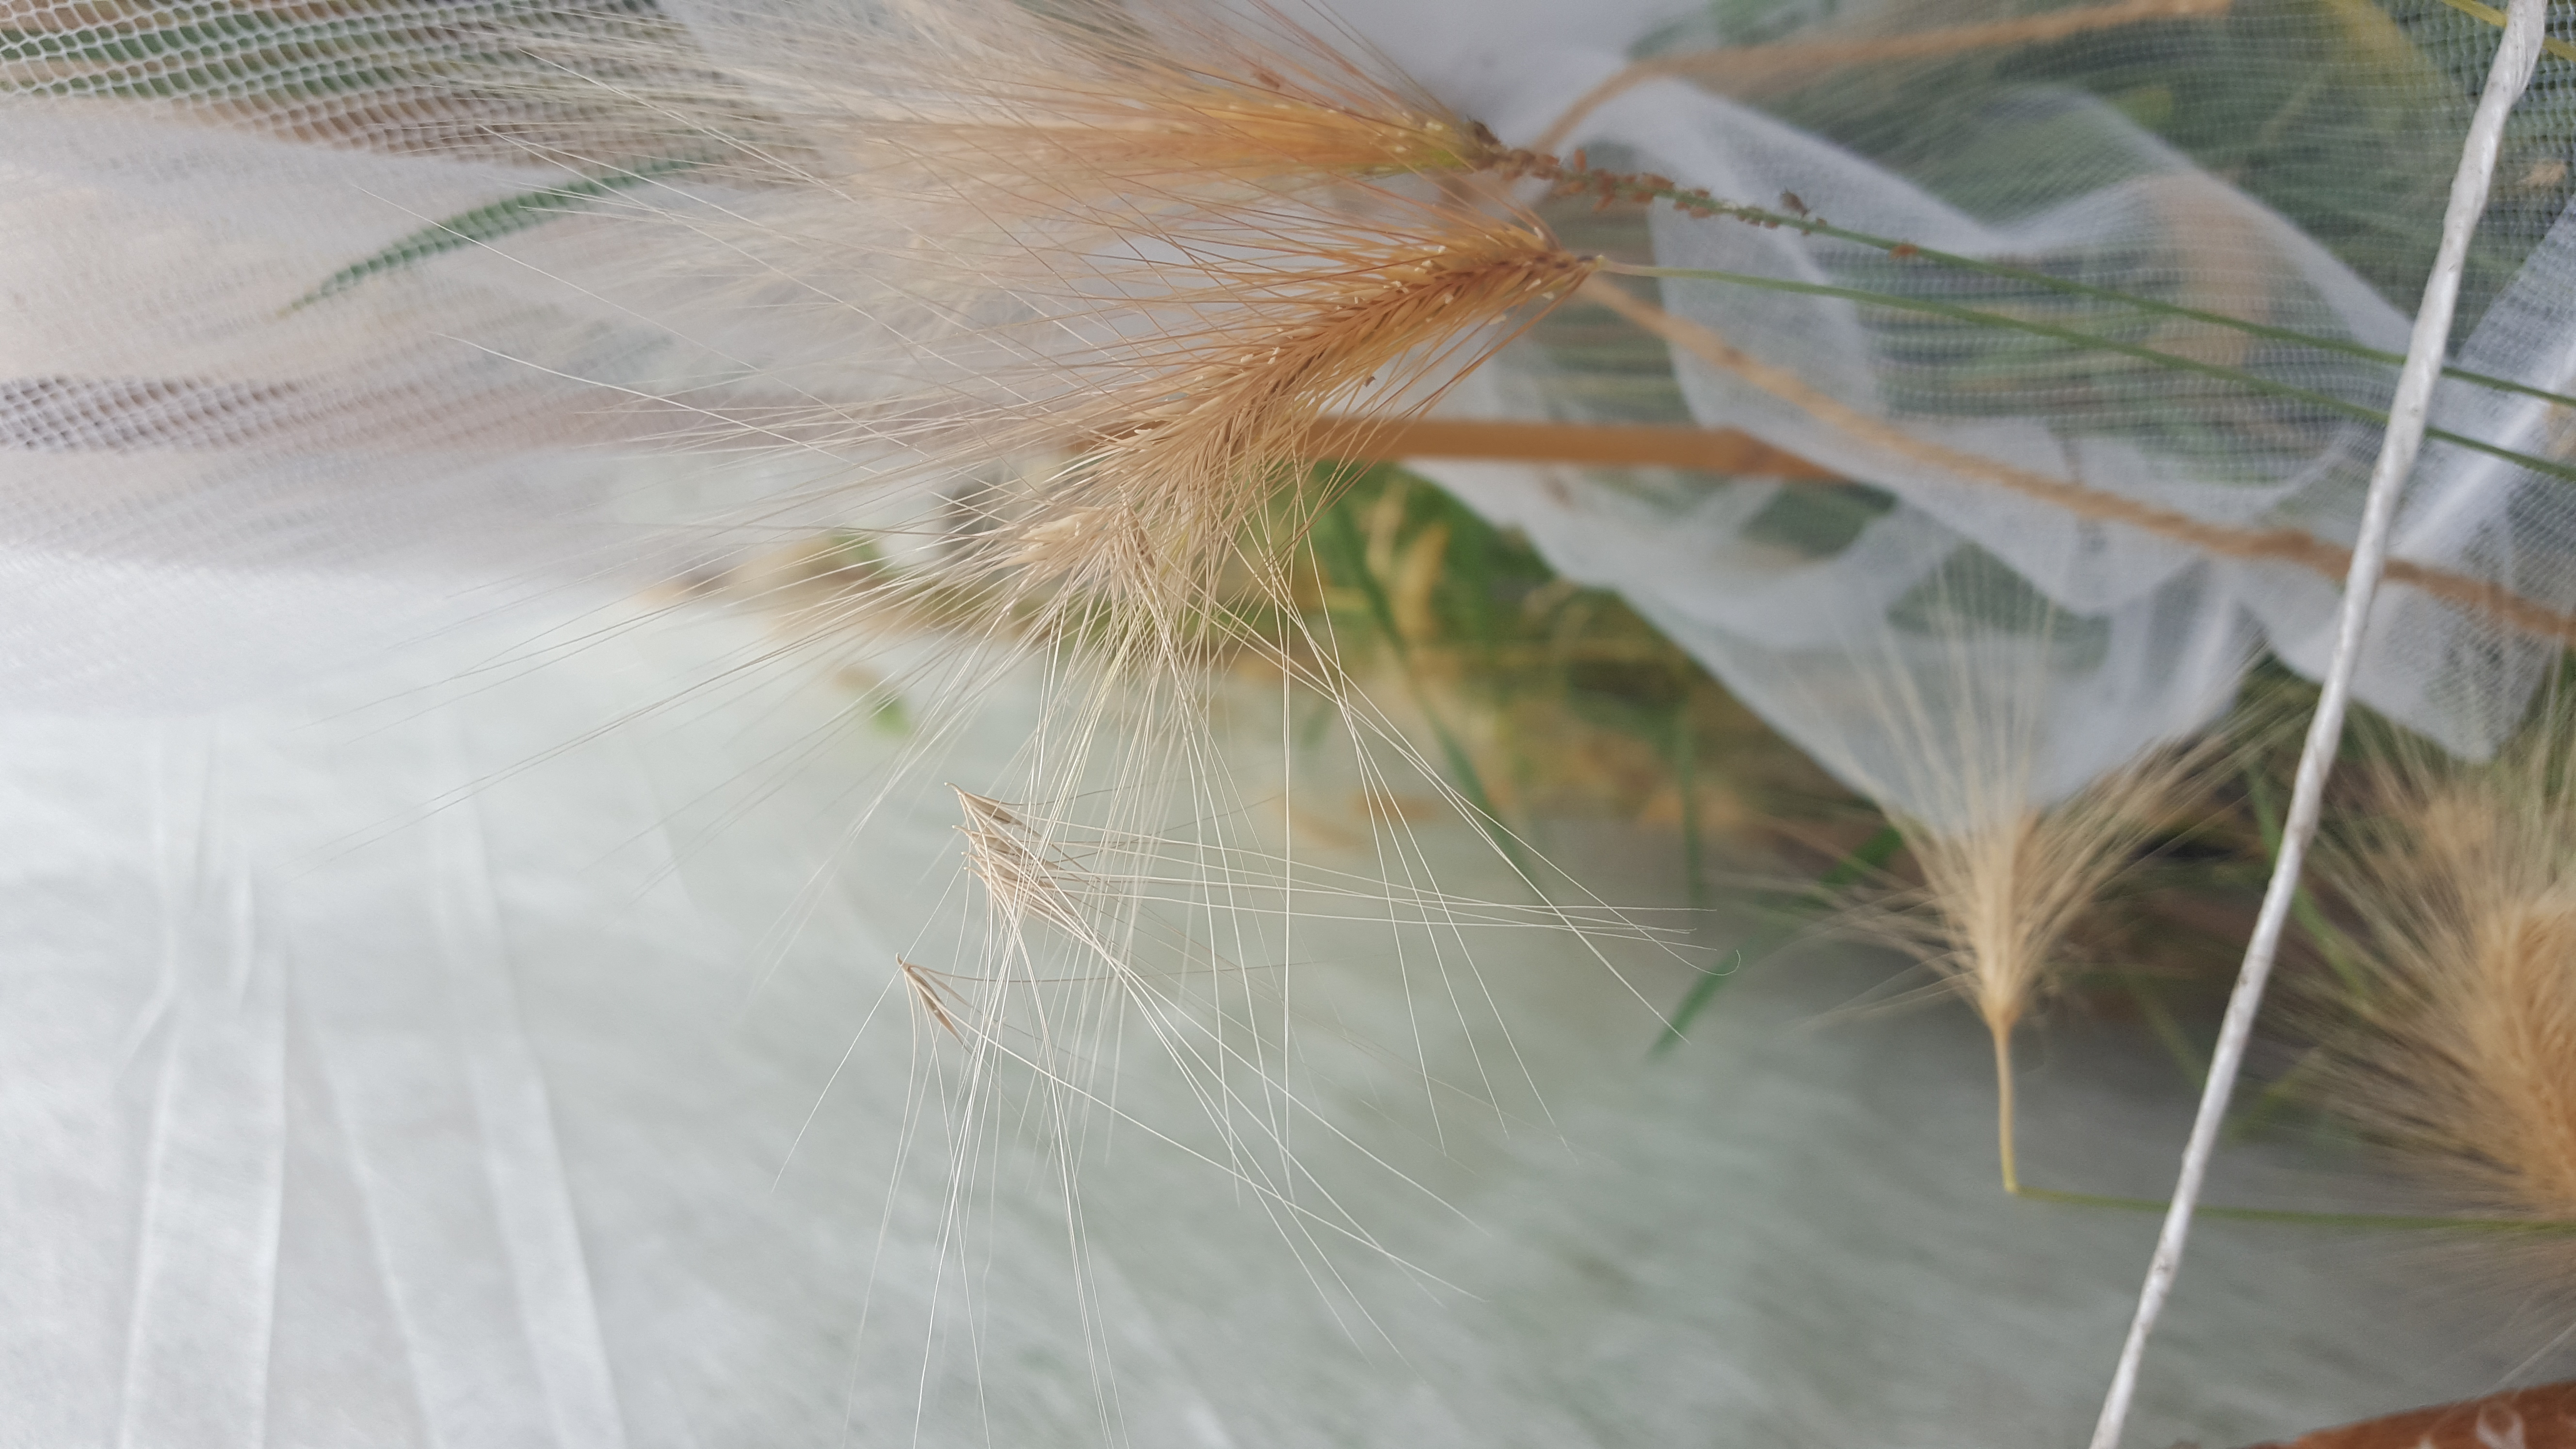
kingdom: Plantae
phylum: Tracheophyta
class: Liliopsida
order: Poales
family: Poaceae
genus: Hordeum
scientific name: Hordeum jubatum
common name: Foxtail barley
